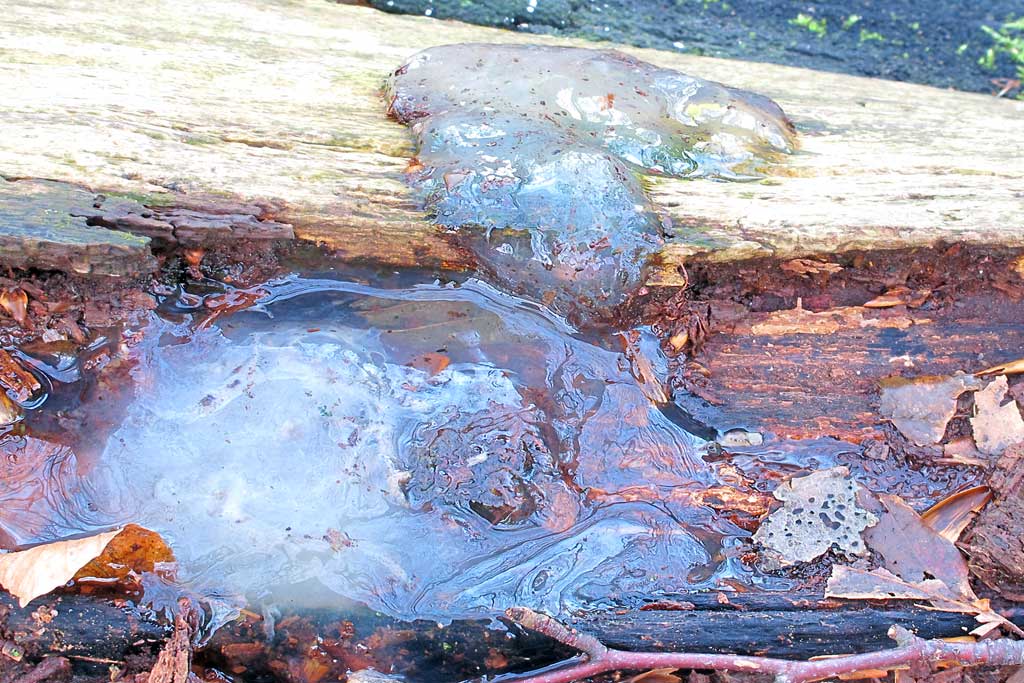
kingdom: Fungi
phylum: Basidiomycota
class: Agaricomycetes
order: Auriculariales
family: Hyaloriaceae
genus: Myxarium
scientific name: Myxarium nucleatum
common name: klar bævretop
